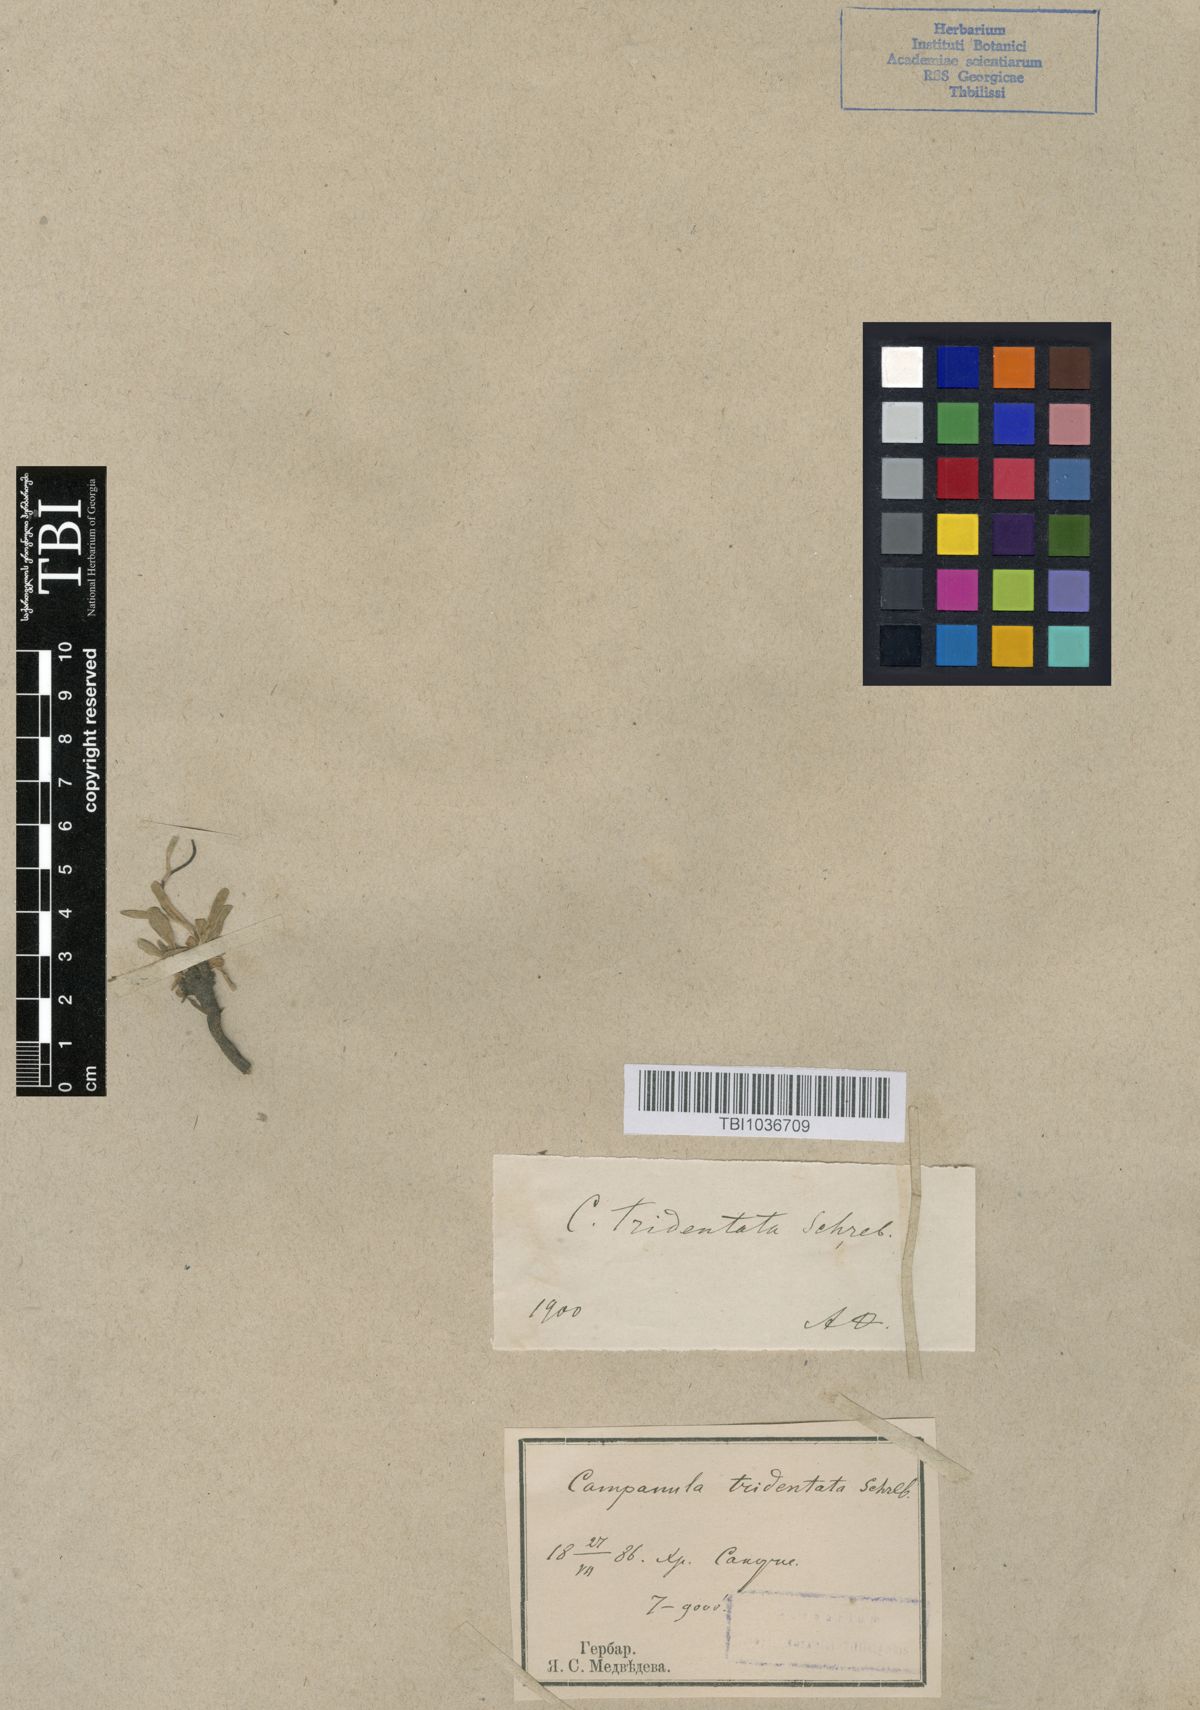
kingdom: Plantae
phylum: Tracheophyta
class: Magnoliopsida
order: Asterales
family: Campanulaceae
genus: Campanula
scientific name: Campanula tridentata
